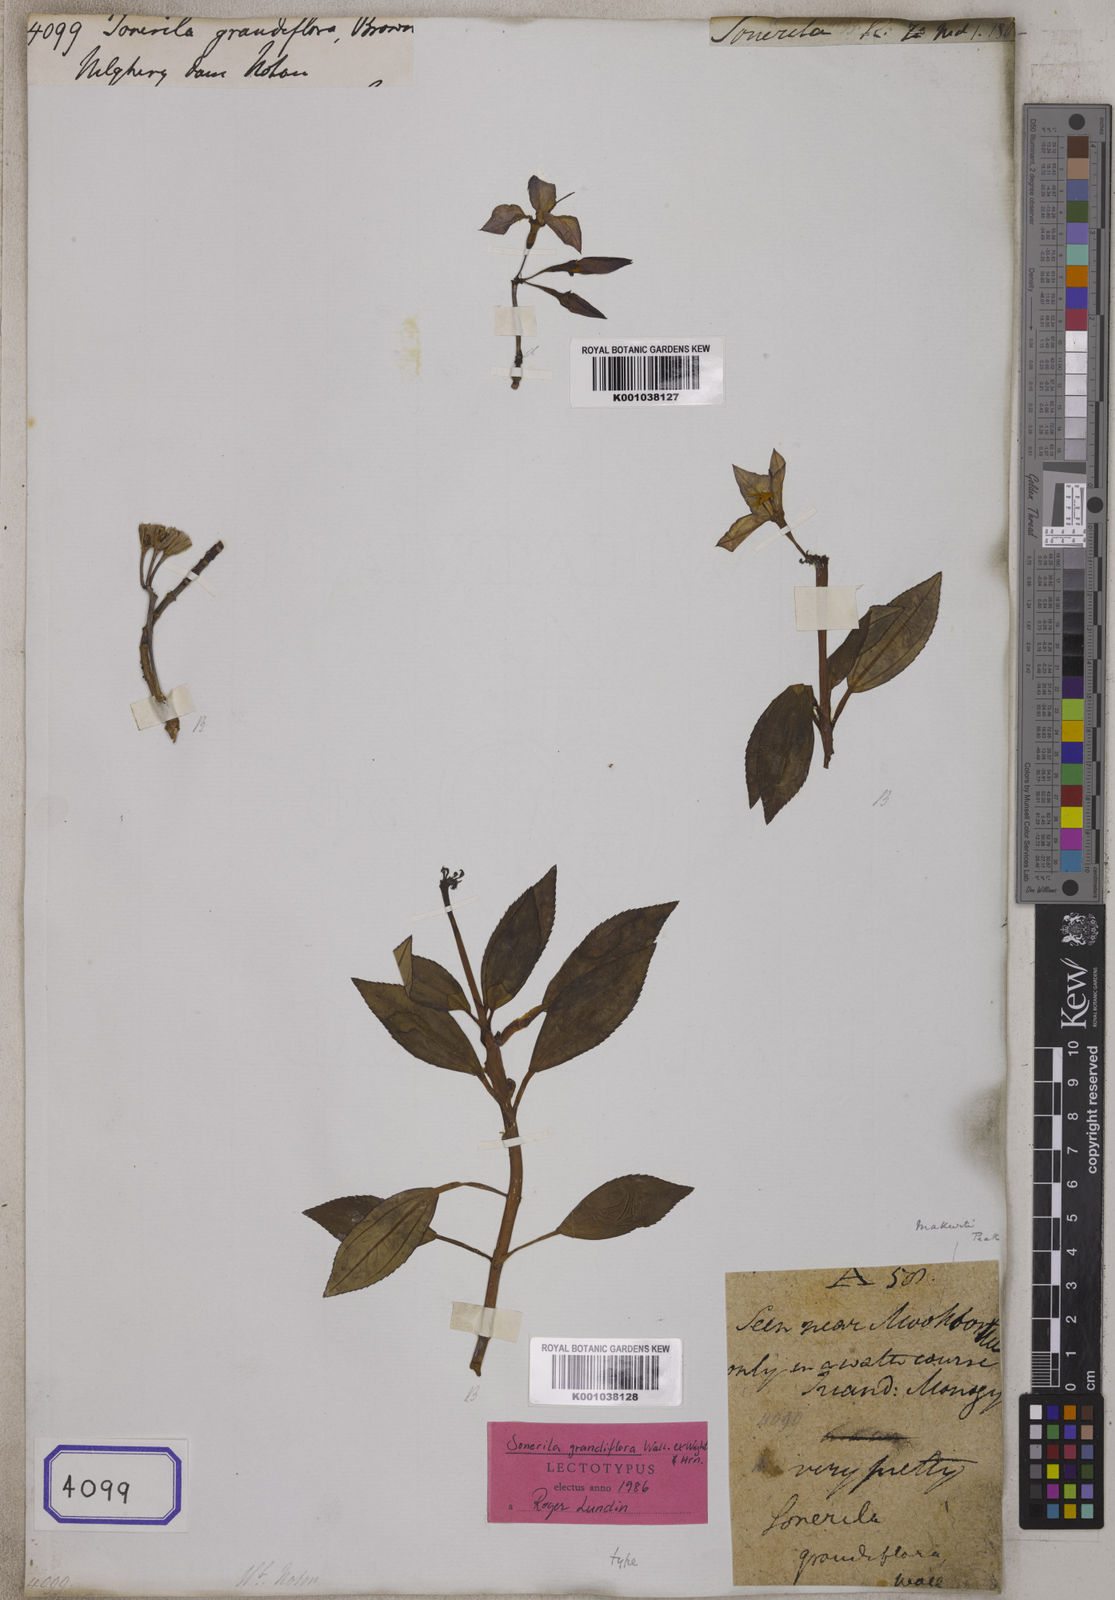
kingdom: Plantae
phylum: Tracheophyta
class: Magnoliopsida
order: Myrtales
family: Melastomataceae
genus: Sonerila
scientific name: Sonerila grandiflora
